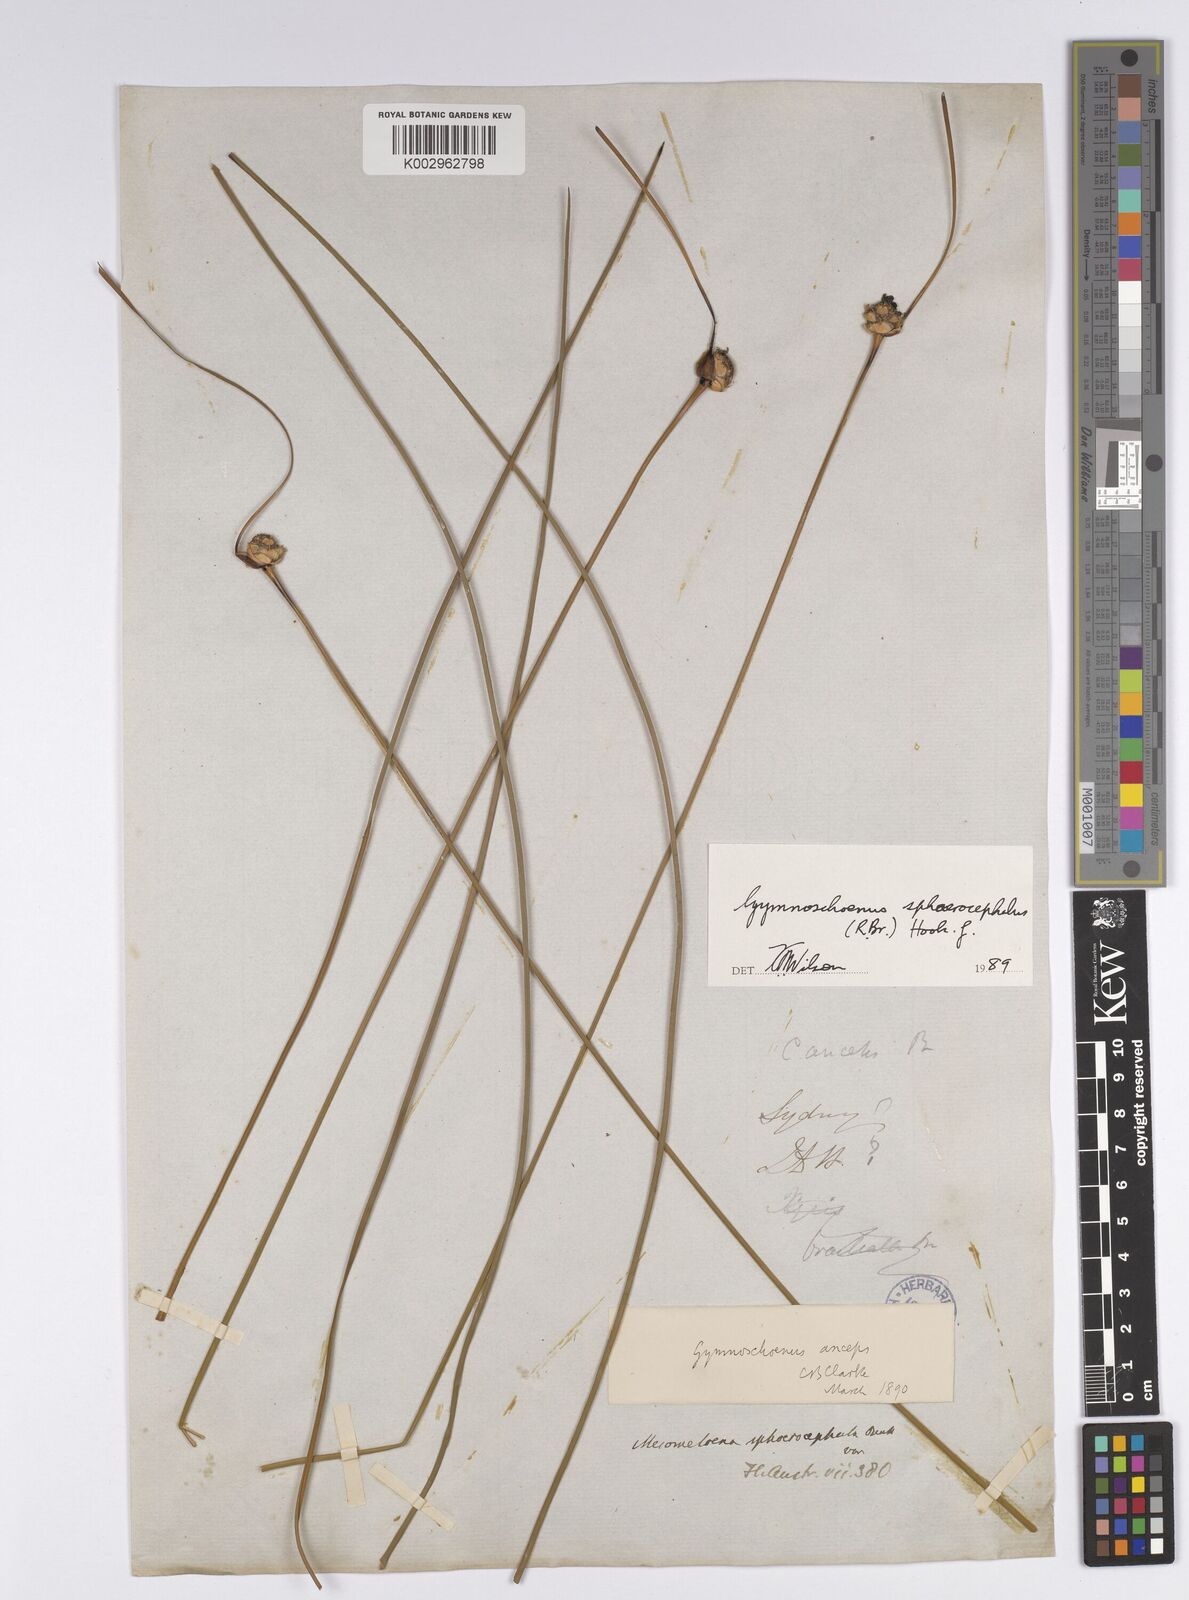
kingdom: Plantae
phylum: Tracheophyta
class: Liliopsida
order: Poales
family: Cyperaceae
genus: Gymnoschoenus
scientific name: Gymnoschoenus sphaerocephalus
